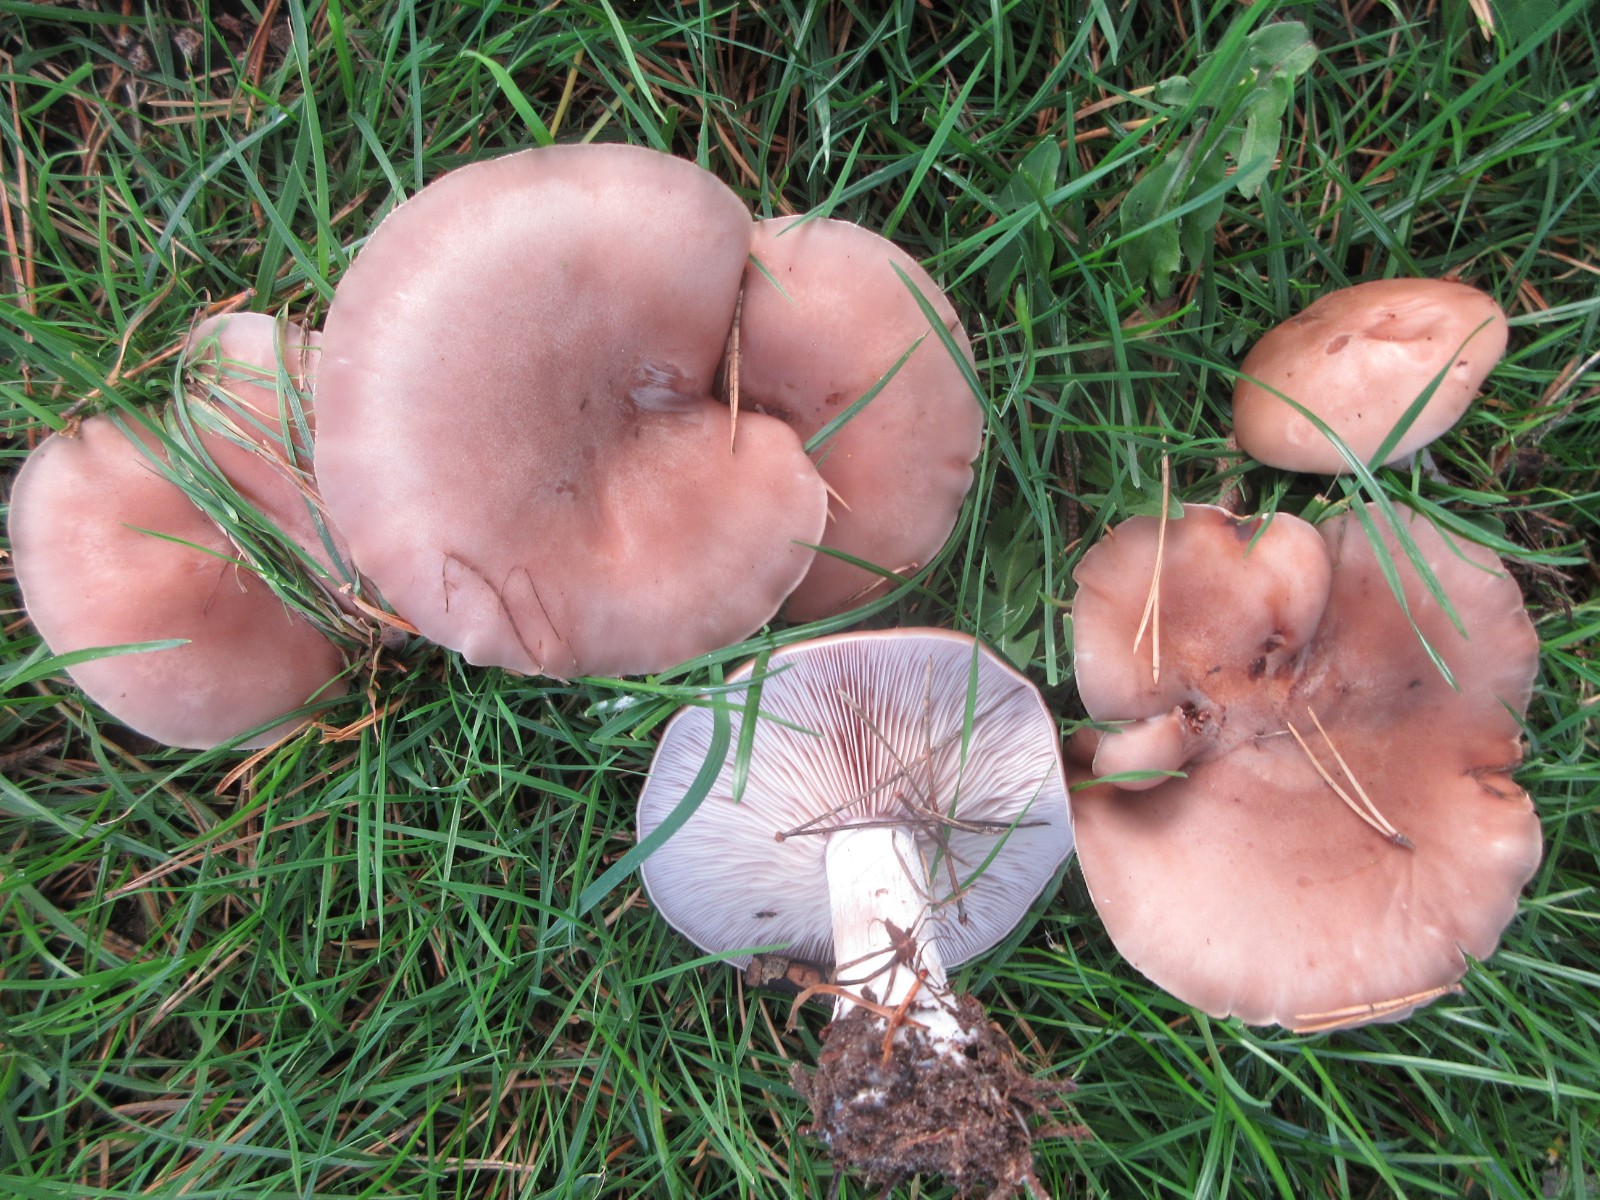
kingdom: Fungi
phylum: Basidiomycota
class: Agaricomycetes
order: Agaricales
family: Tricholomataceae
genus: Lepista
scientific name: Lepista
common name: hekseringshat
